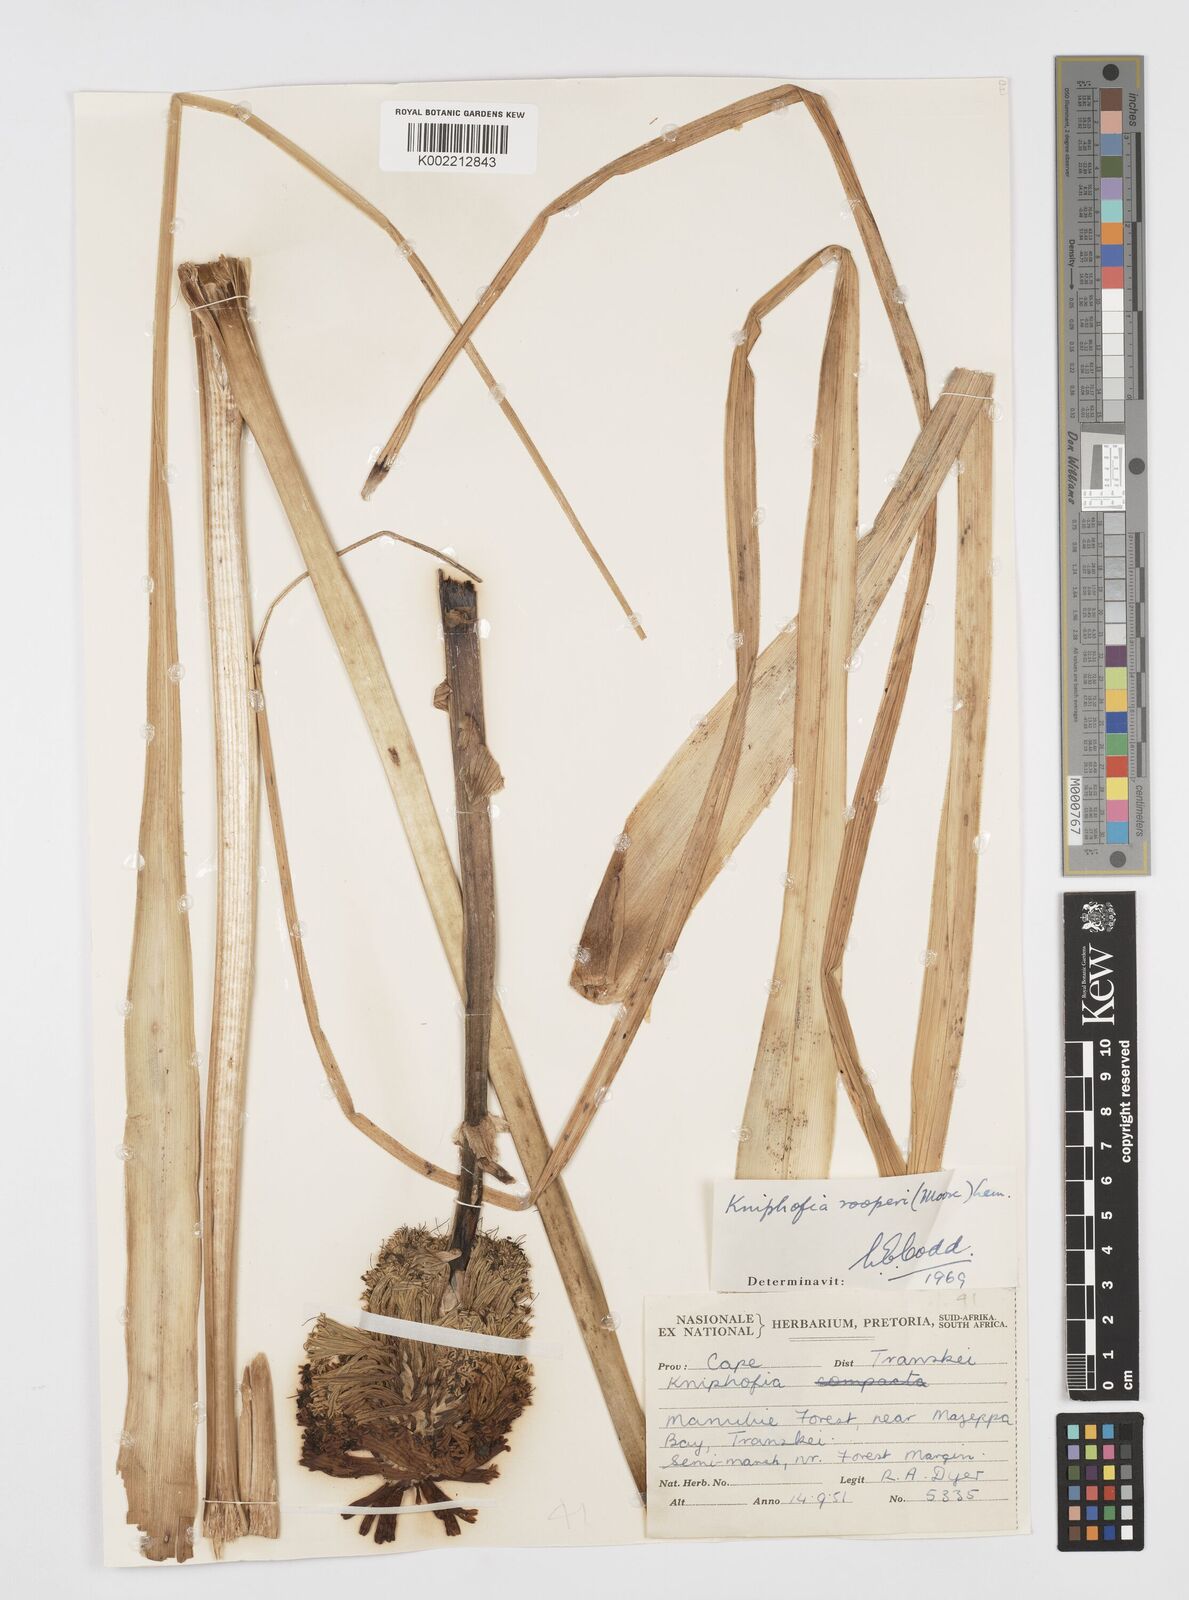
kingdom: Plantae
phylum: Tracheophyta
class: Liliopsida
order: Asparagales
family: Asphodelaceae
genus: Kniphofia
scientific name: Kniphofia rooperi
